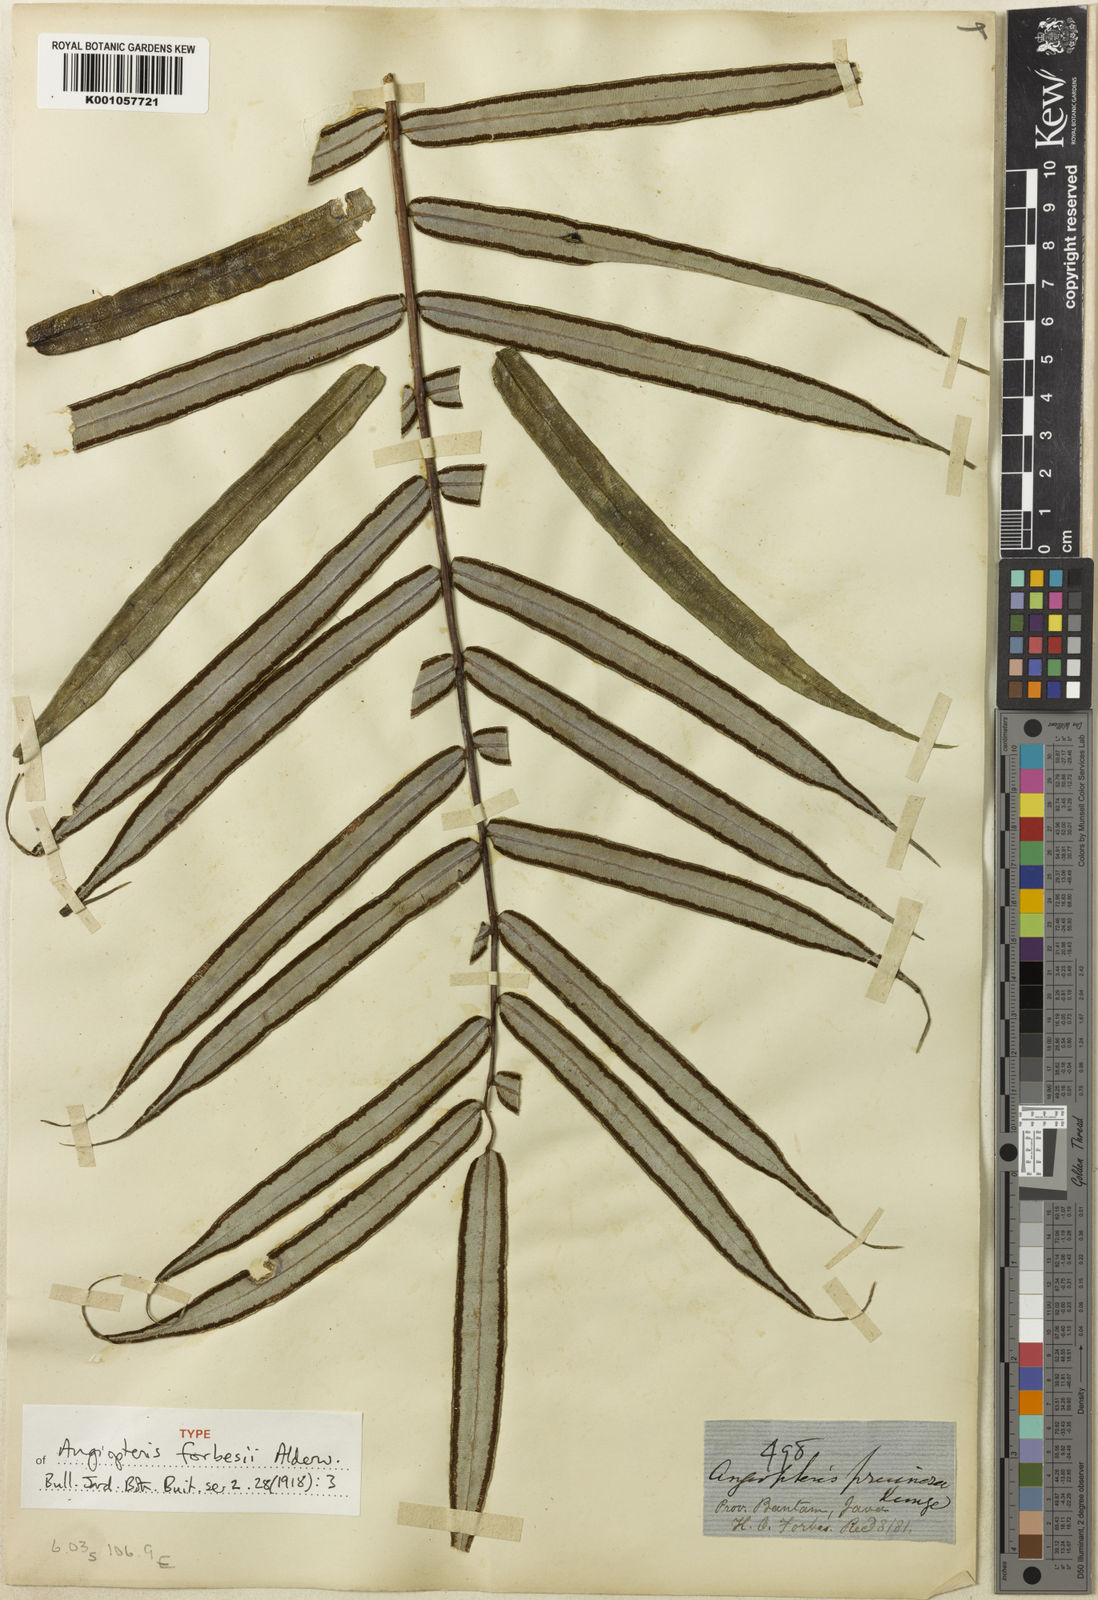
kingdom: Plantae
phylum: Tracheophyta
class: Polypodiopsida
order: Marattiales
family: Marattiaceae
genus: Angiopteris
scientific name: Angiopteris angustifolia
